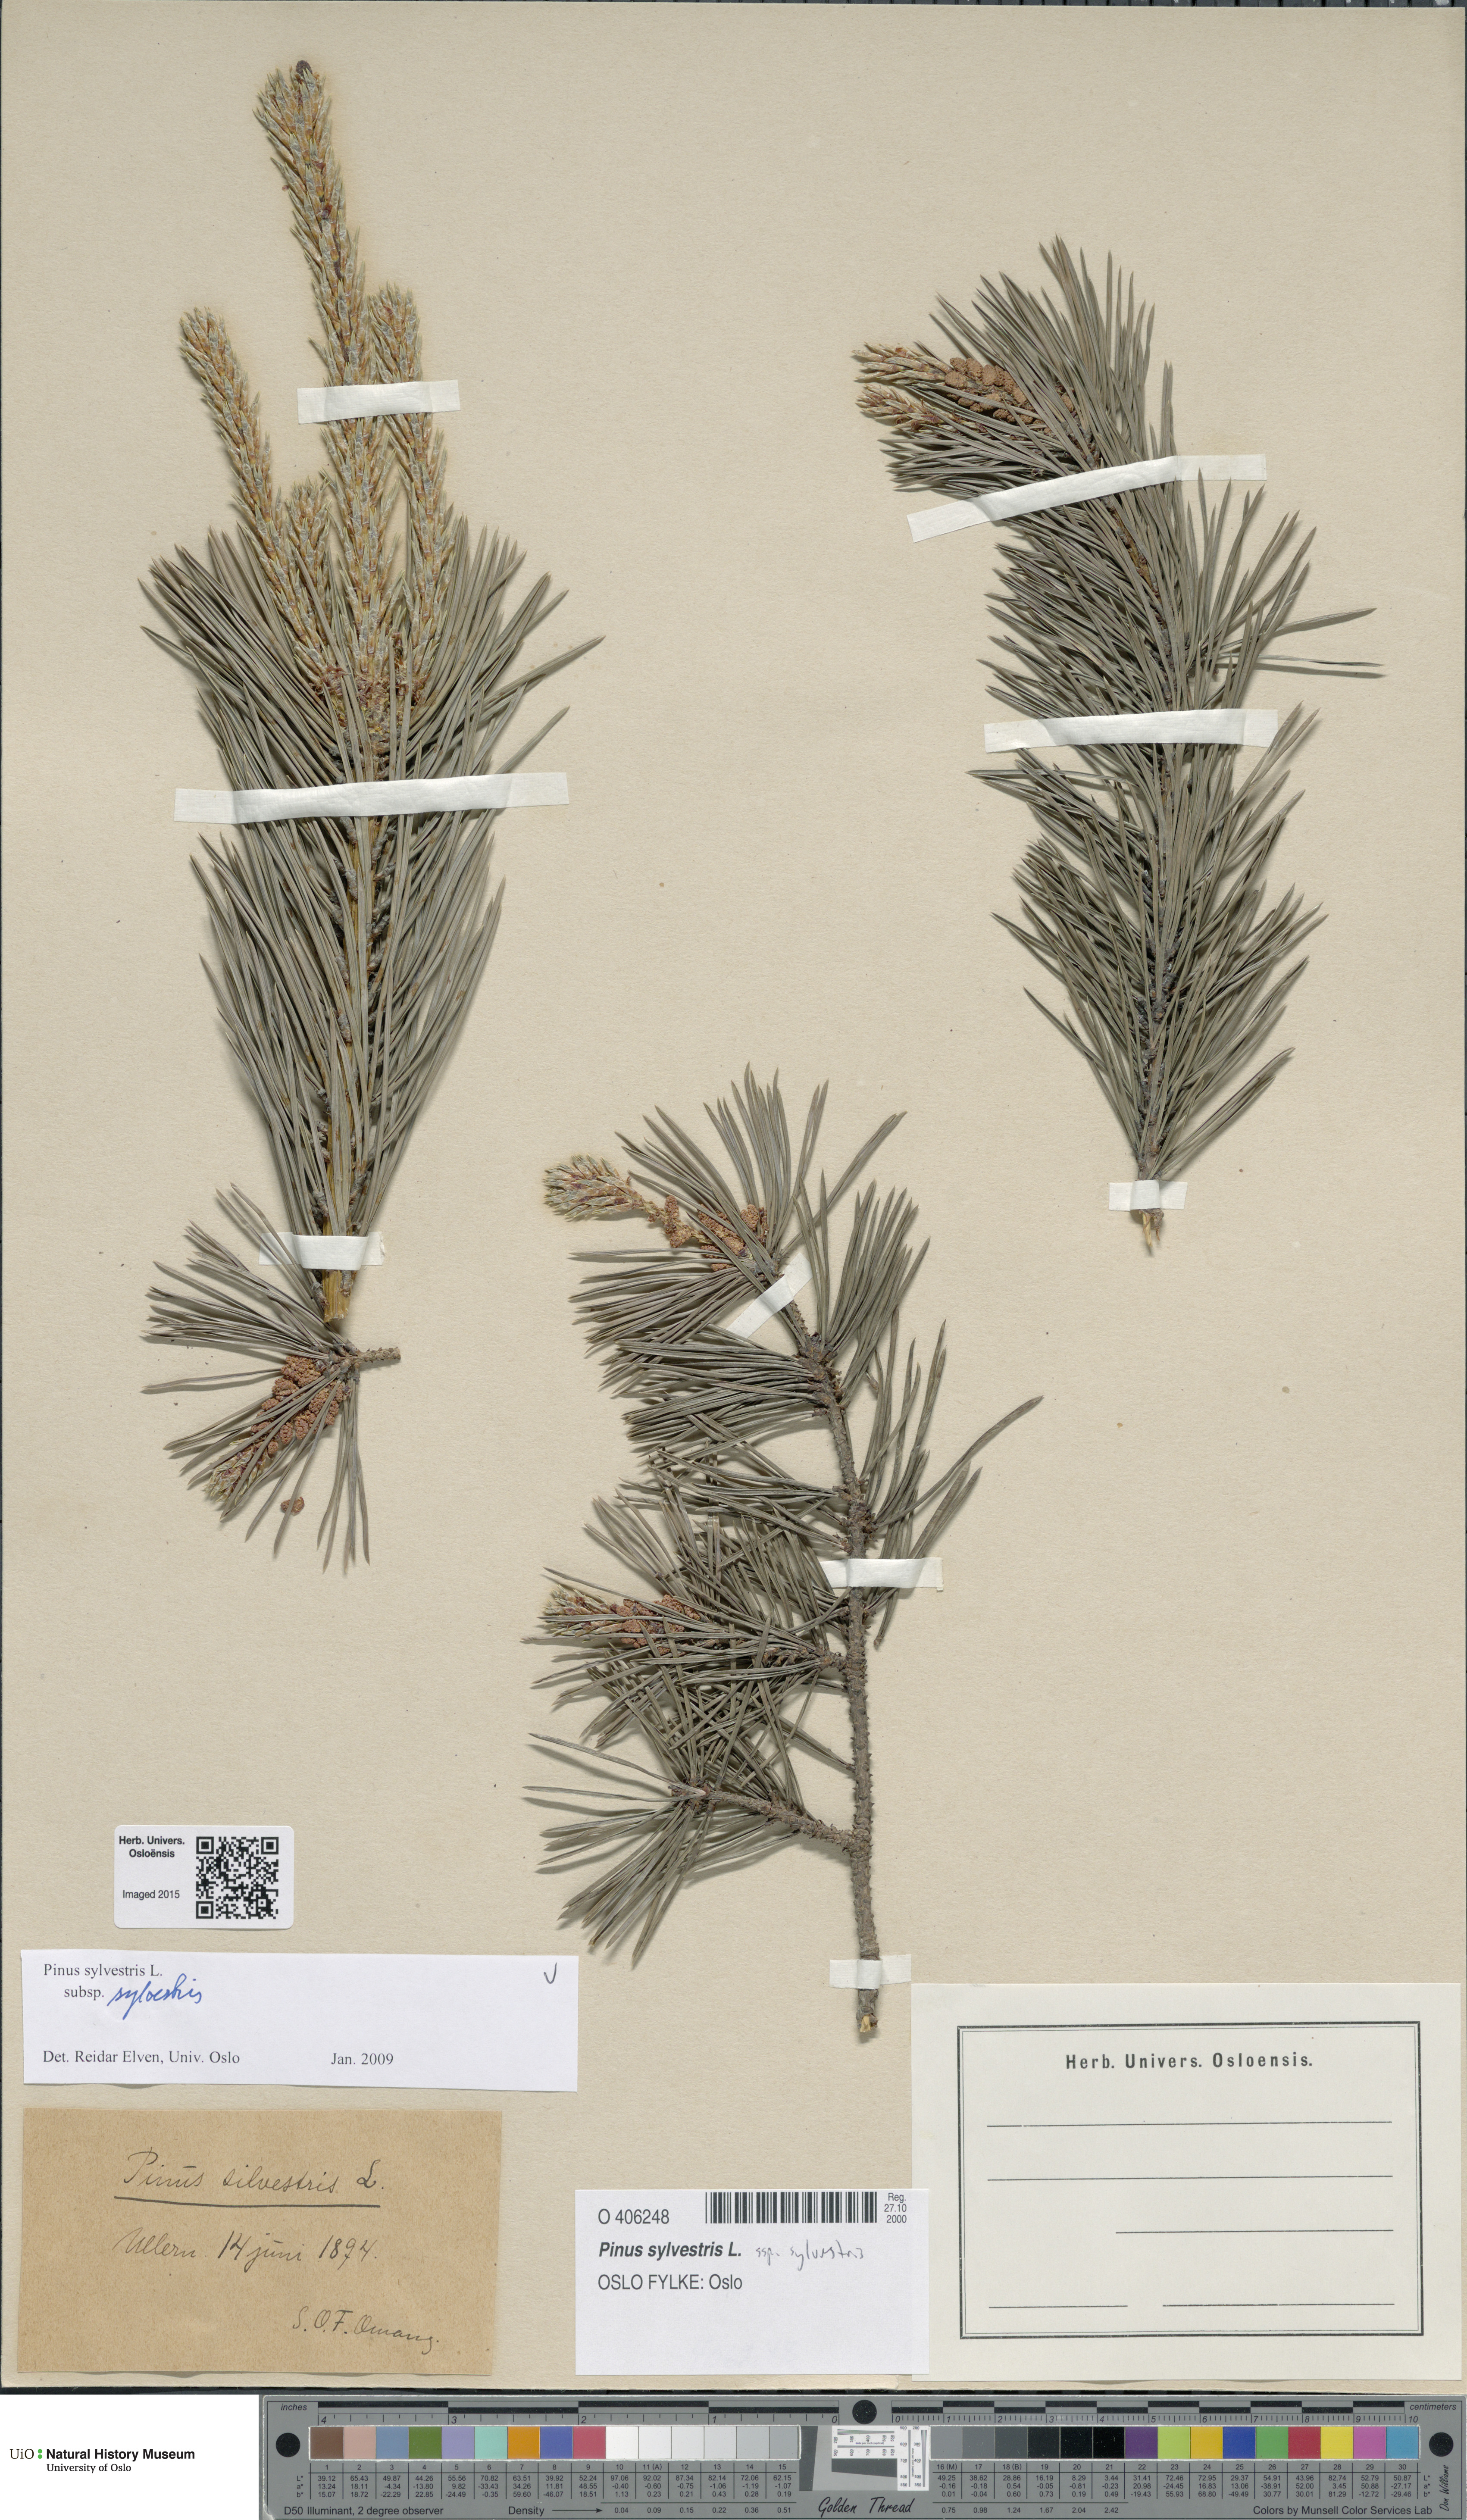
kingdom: Plantae
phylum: Tracheophyta
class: Pinopsida
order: Pinales
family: Pinaceae
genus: Pinus
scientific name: Pinus sylvestris
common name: Scots pine
